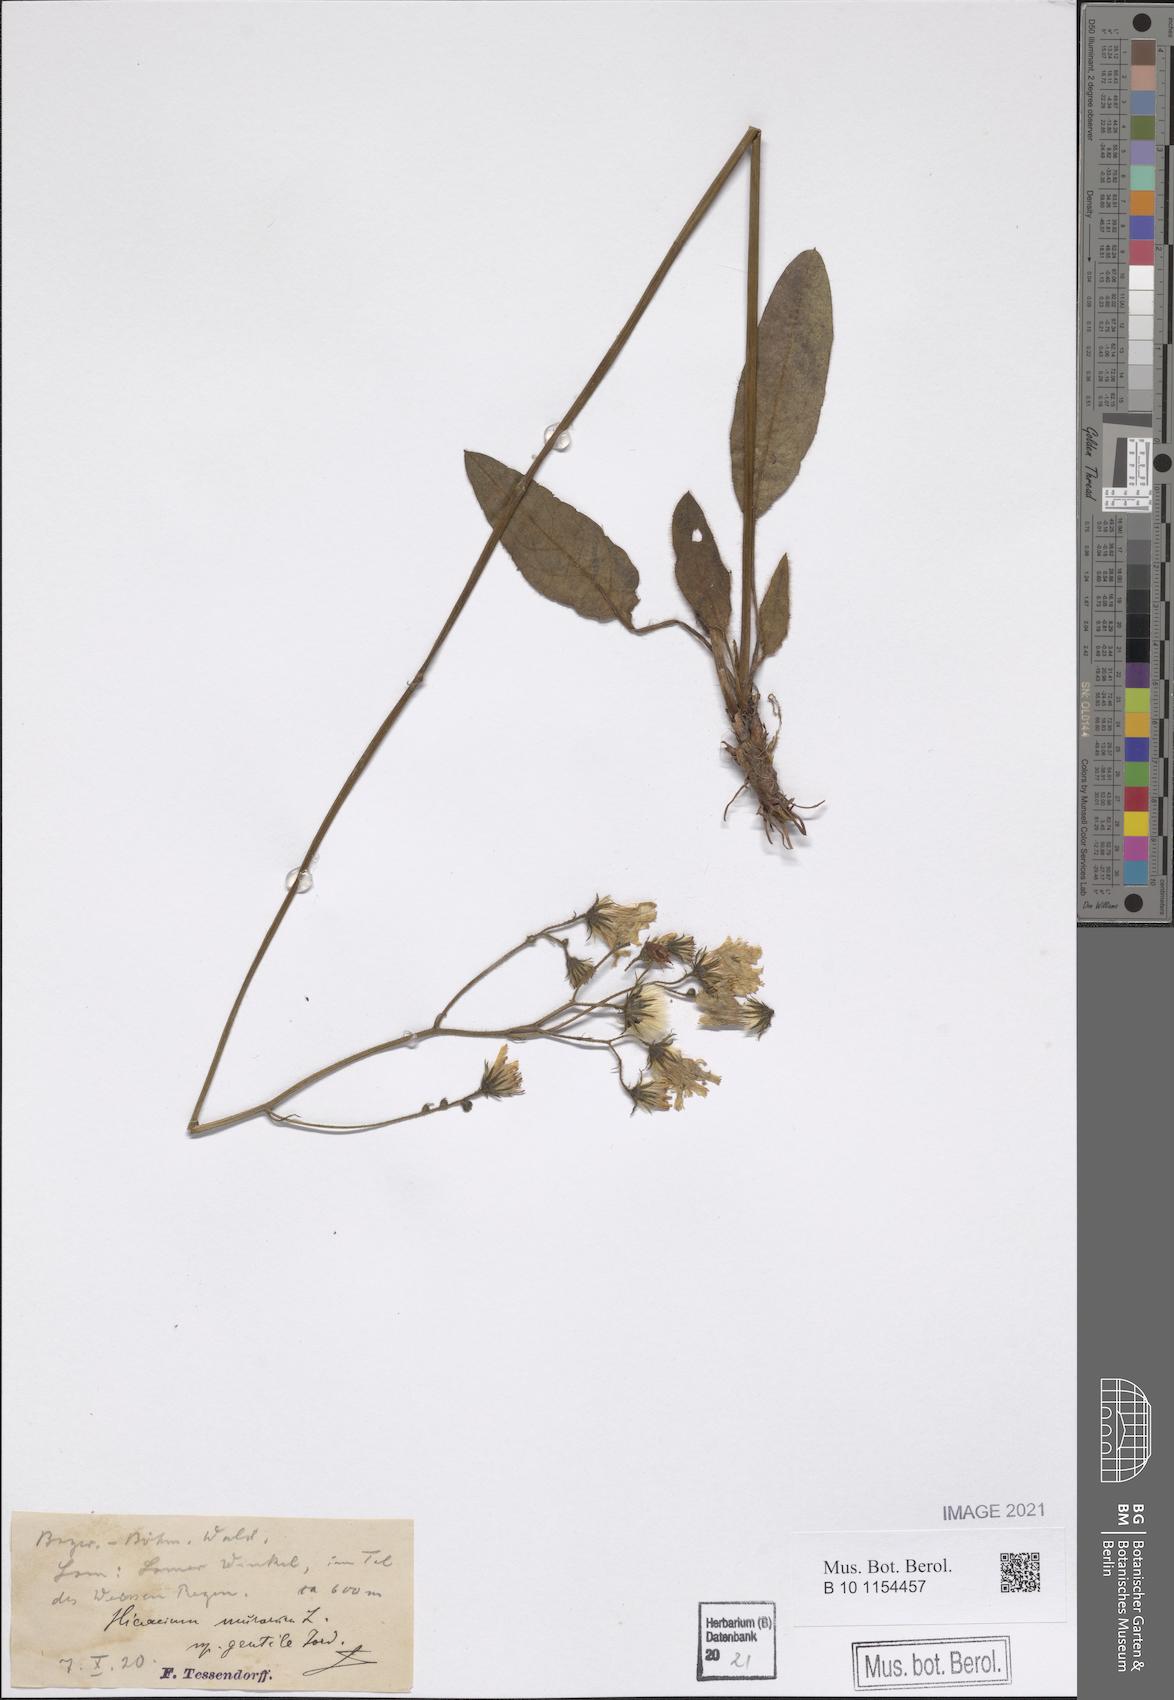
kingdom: Plantae
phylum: Tracheophyta
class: Magnoliopsida
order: Asterales
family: Asteraceae
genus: Hieracium
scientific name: Hieracium murorum
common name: Wall hawkweed
